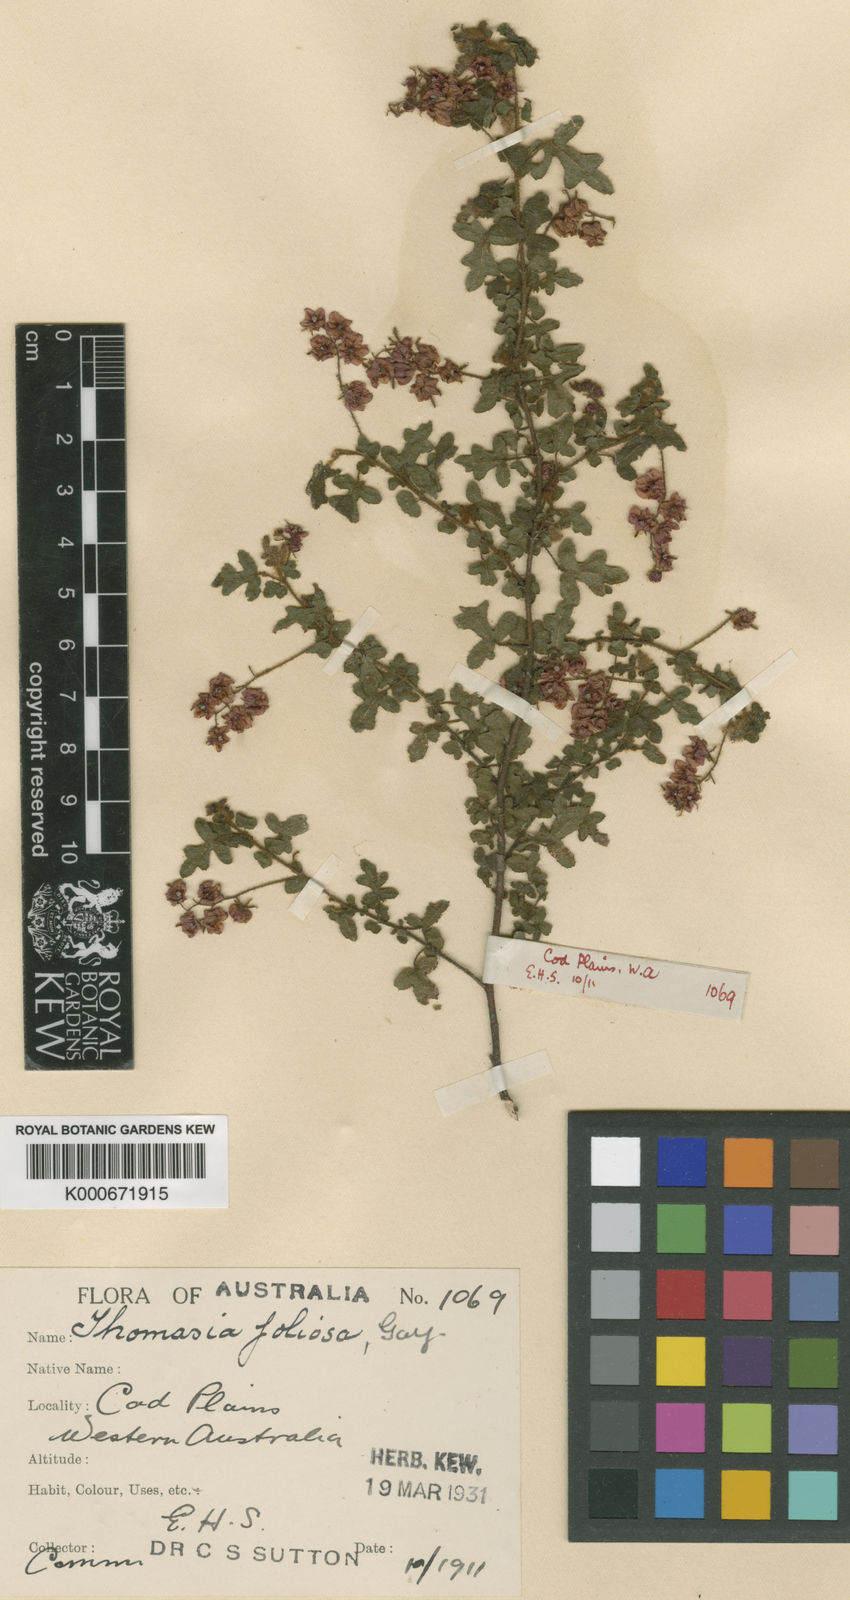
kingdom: Plantae
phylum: Tracheophyta
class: Magnoliopsida
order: Malvales
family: Malvaceae
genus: Thomasia
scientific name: Thomasia foliosa
